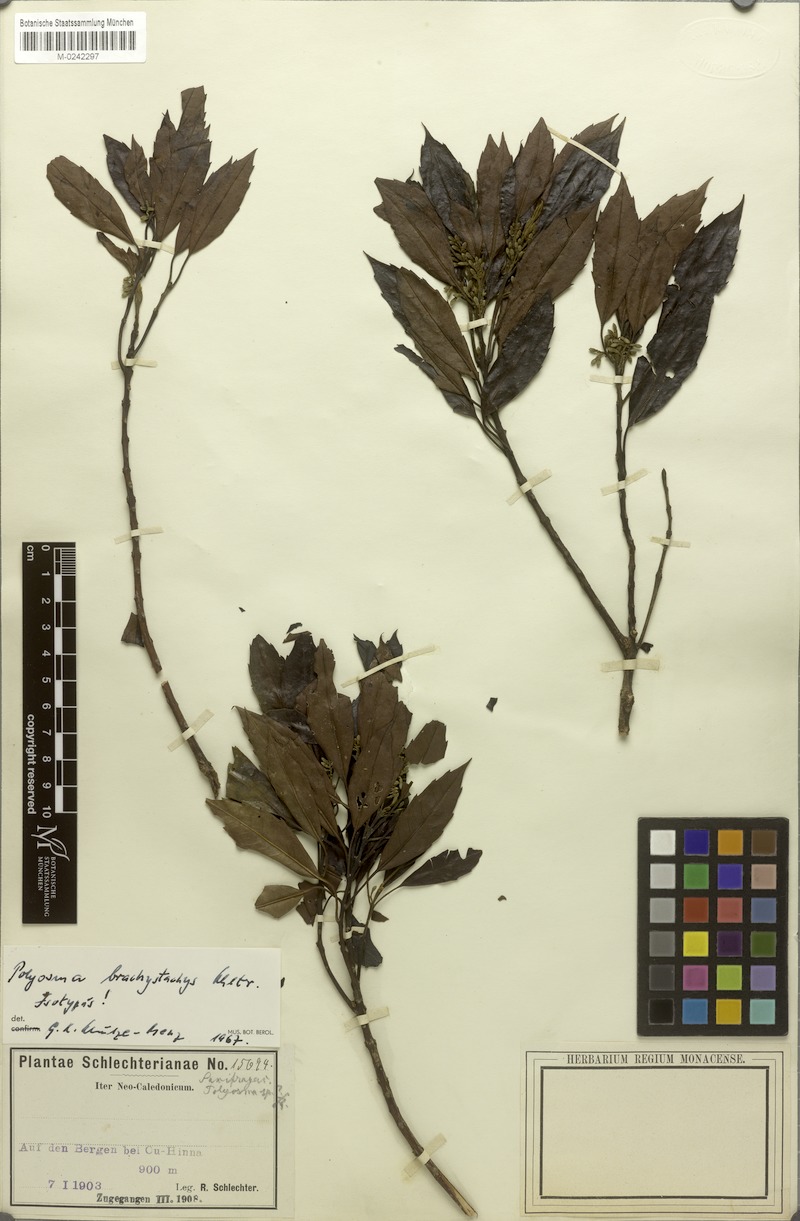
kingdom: Plantae
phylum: Tracheophyta
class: Magnoliopsida
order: Escalloniales
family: Escalloniaceae
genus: Polyosma
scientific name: Polyosma brachystachys
